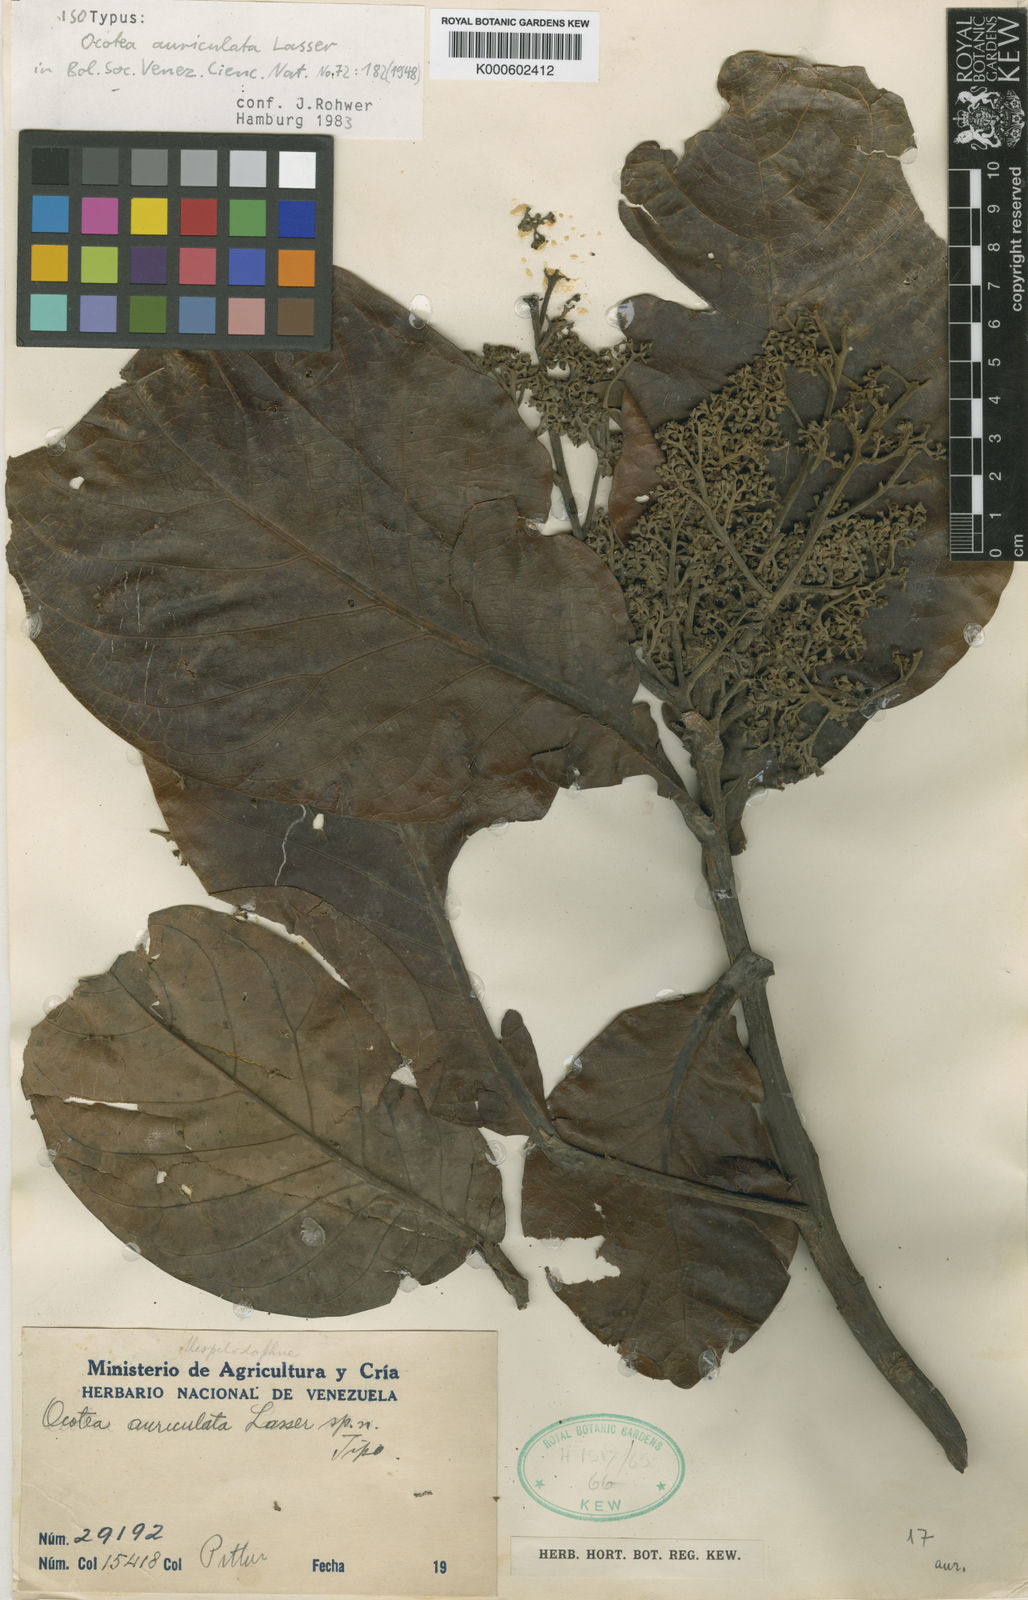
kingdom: Plantae
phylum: Tracheophyta
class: Magnoliopsida
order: Laurales
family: Lauraceae
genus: Ocotea
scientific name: Ocotea auriculata
